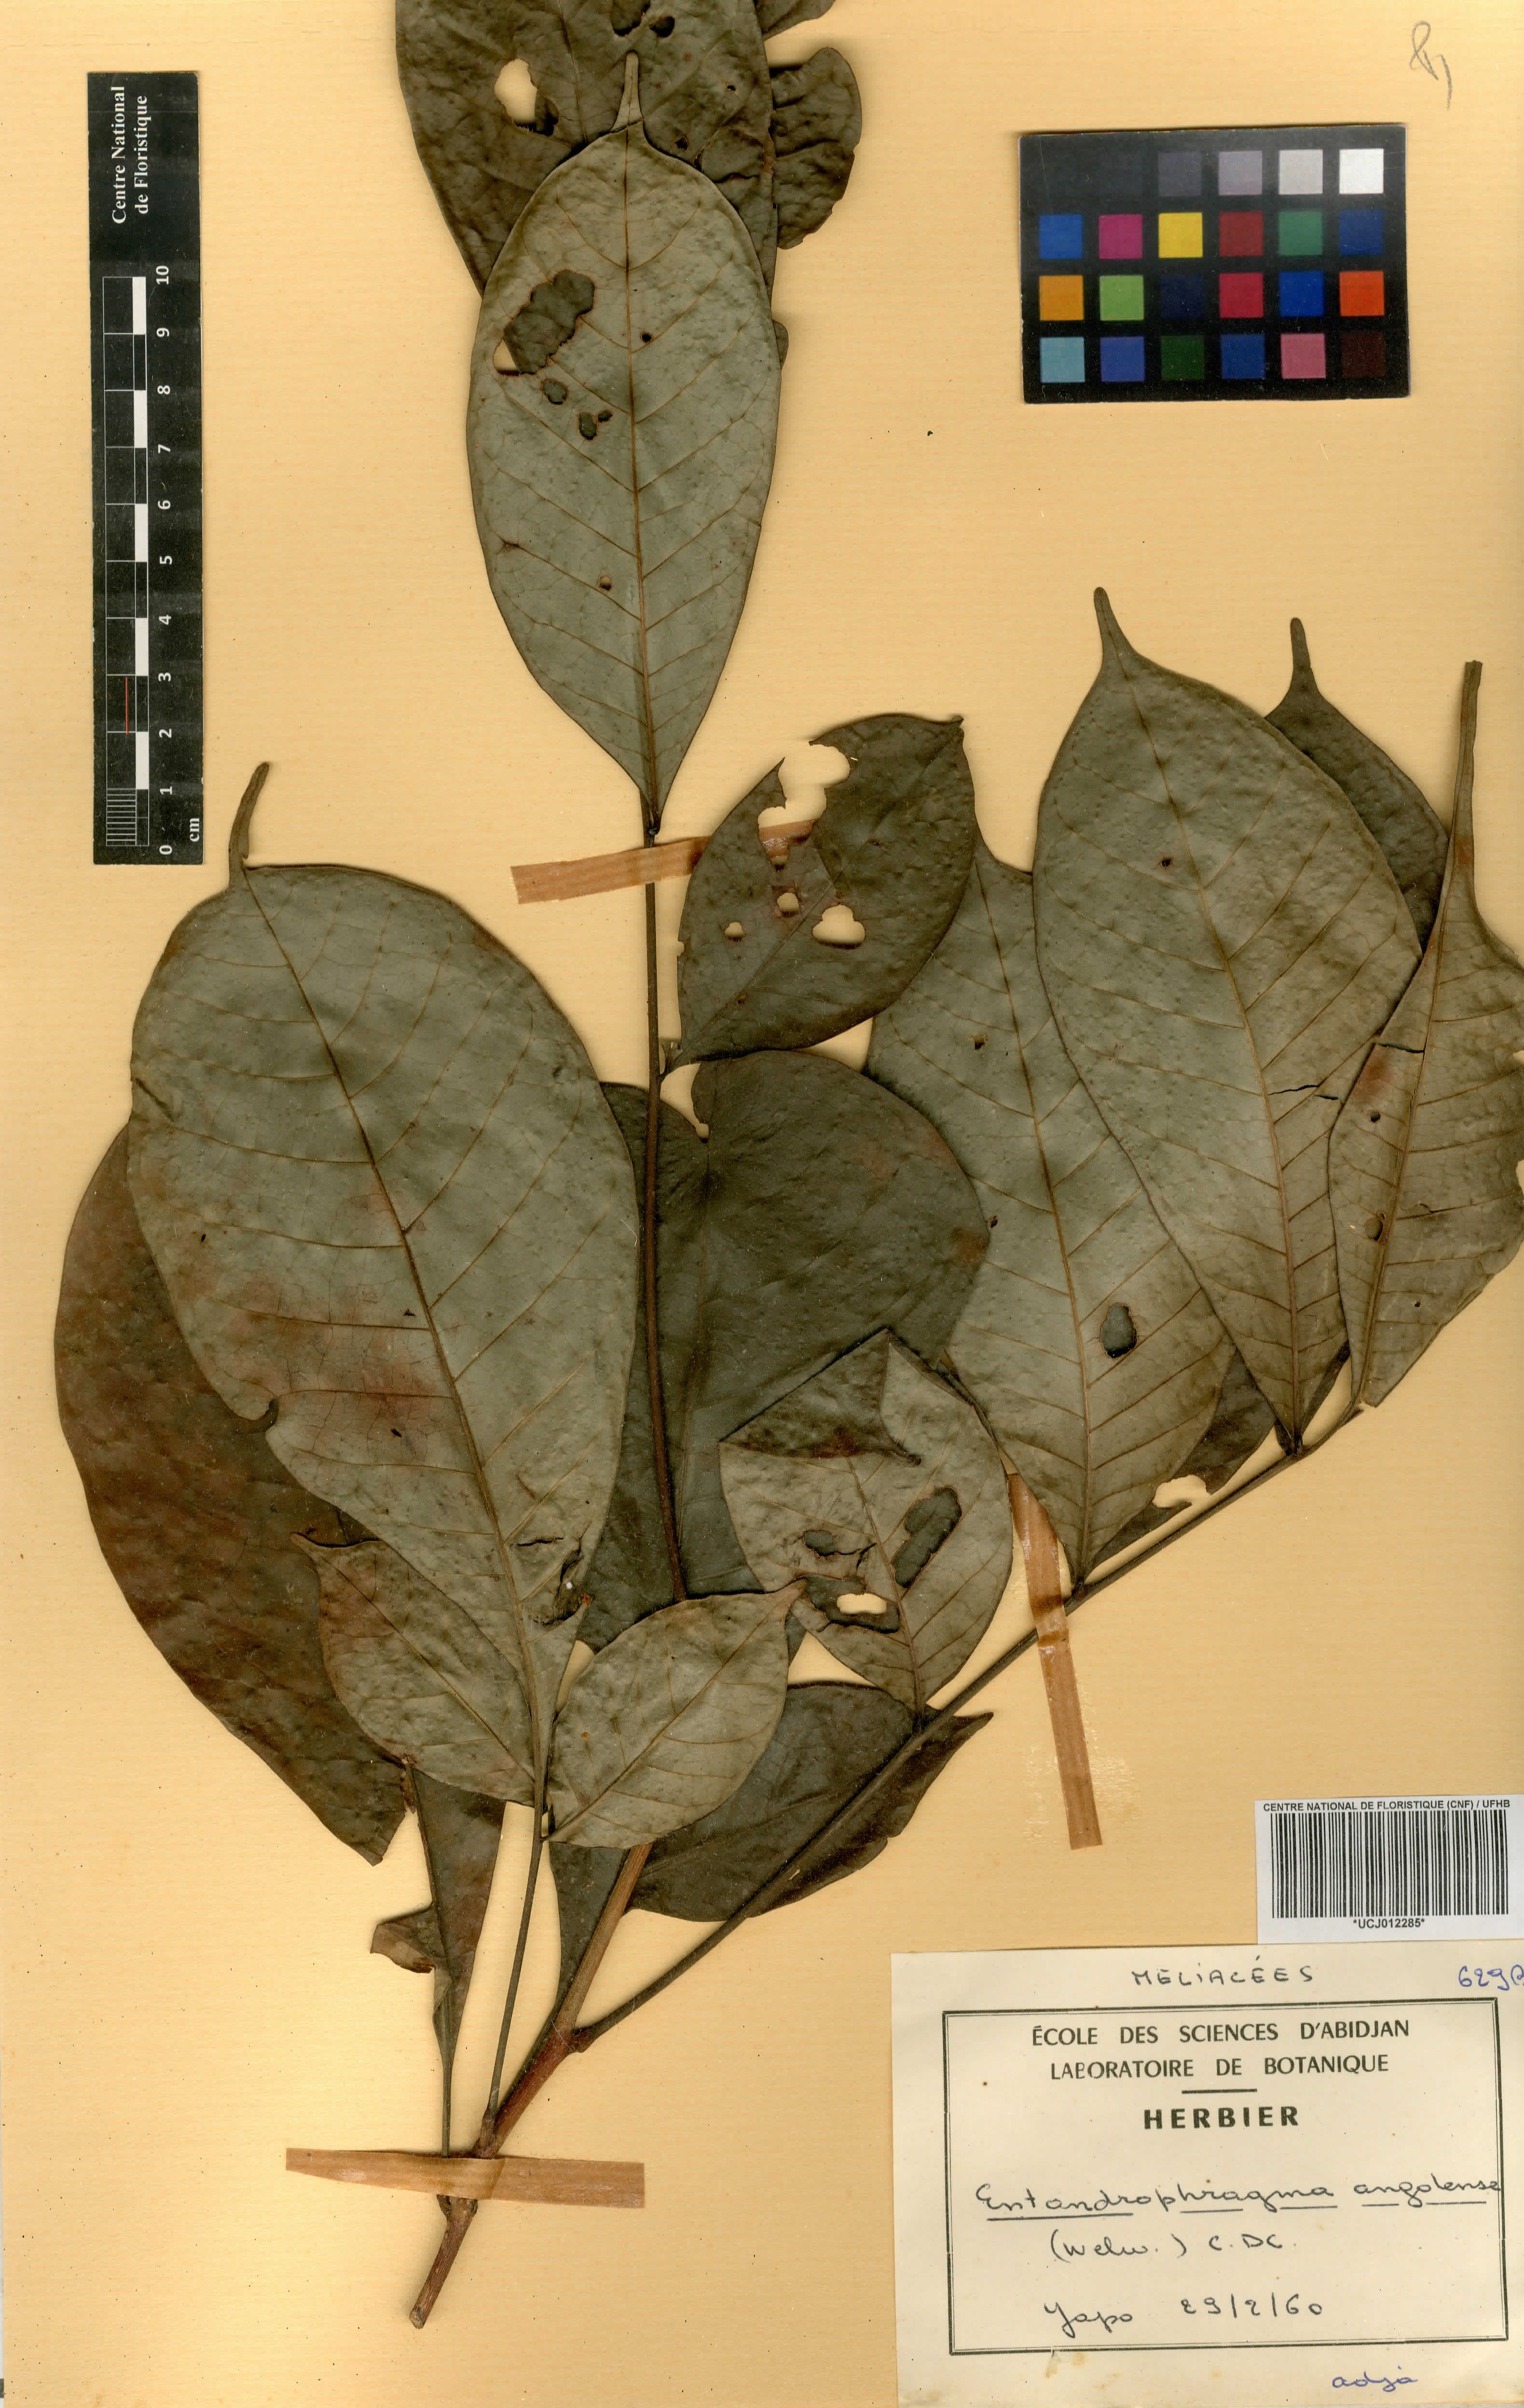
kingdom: Plantae
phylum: Tracheophyta
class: Magnoliopsida
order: Sapindales
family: Meliaceae
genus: Entandrophragma
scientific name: Entandrophragma angolense
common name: African mahogany
